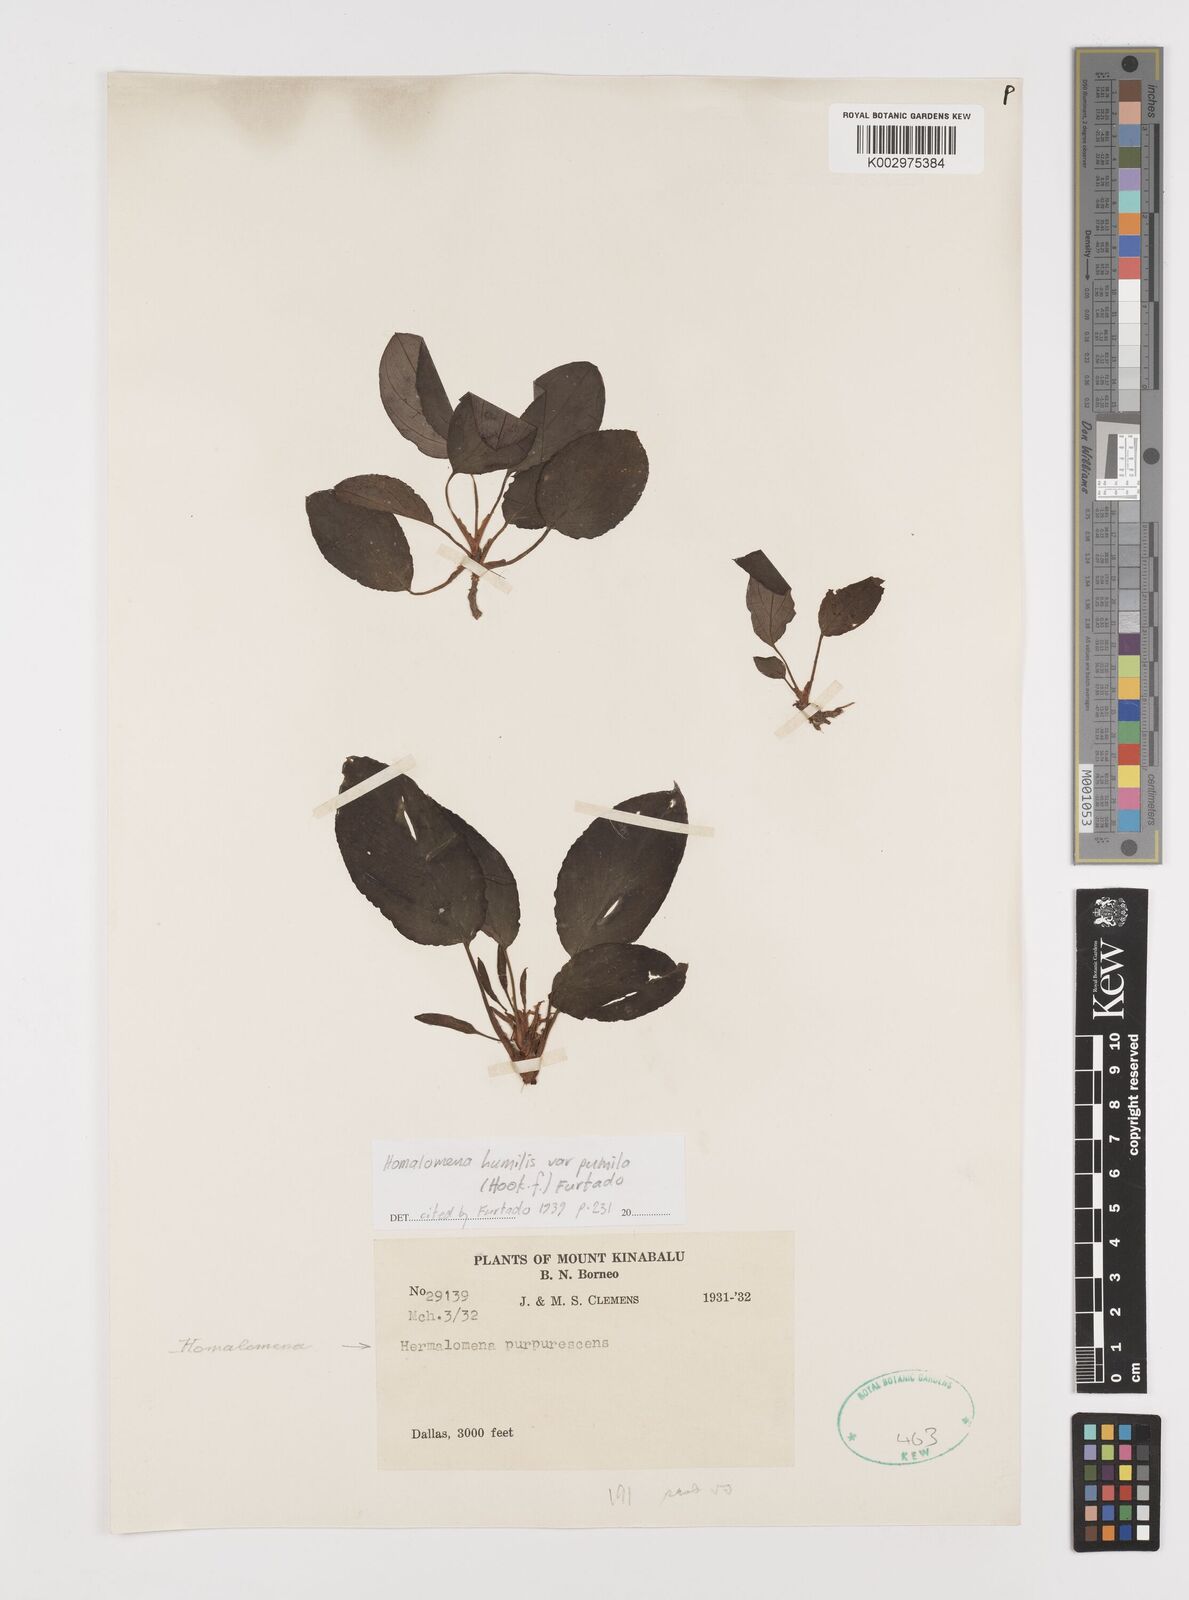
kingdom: Plantae
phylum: Tracheophyta
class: Liliopsida
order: Alismatales
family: Araceae
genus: Homalomena
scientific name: Homalomena humilis
